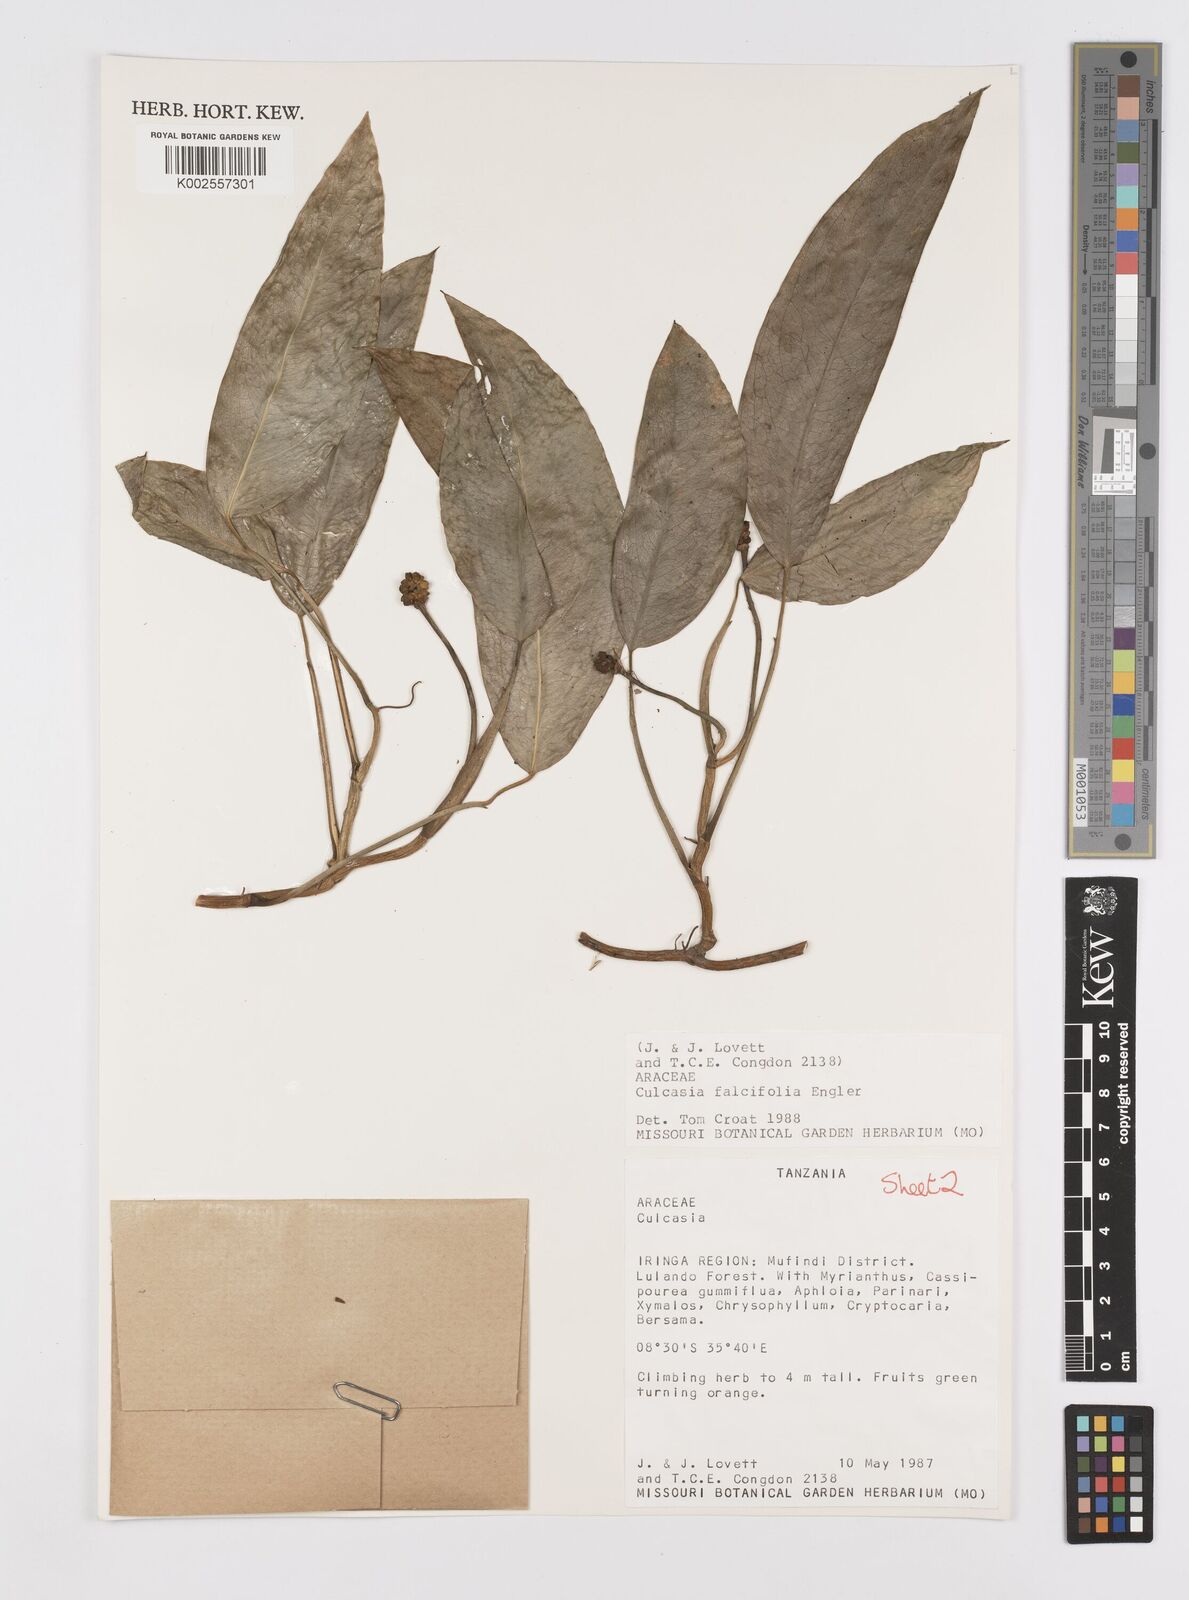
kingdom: Plantae
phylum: Tracheophyta
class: Liliopsida
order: Alismatales
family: Araceae
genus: Culcasia
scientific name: Culcasia falcifolia
